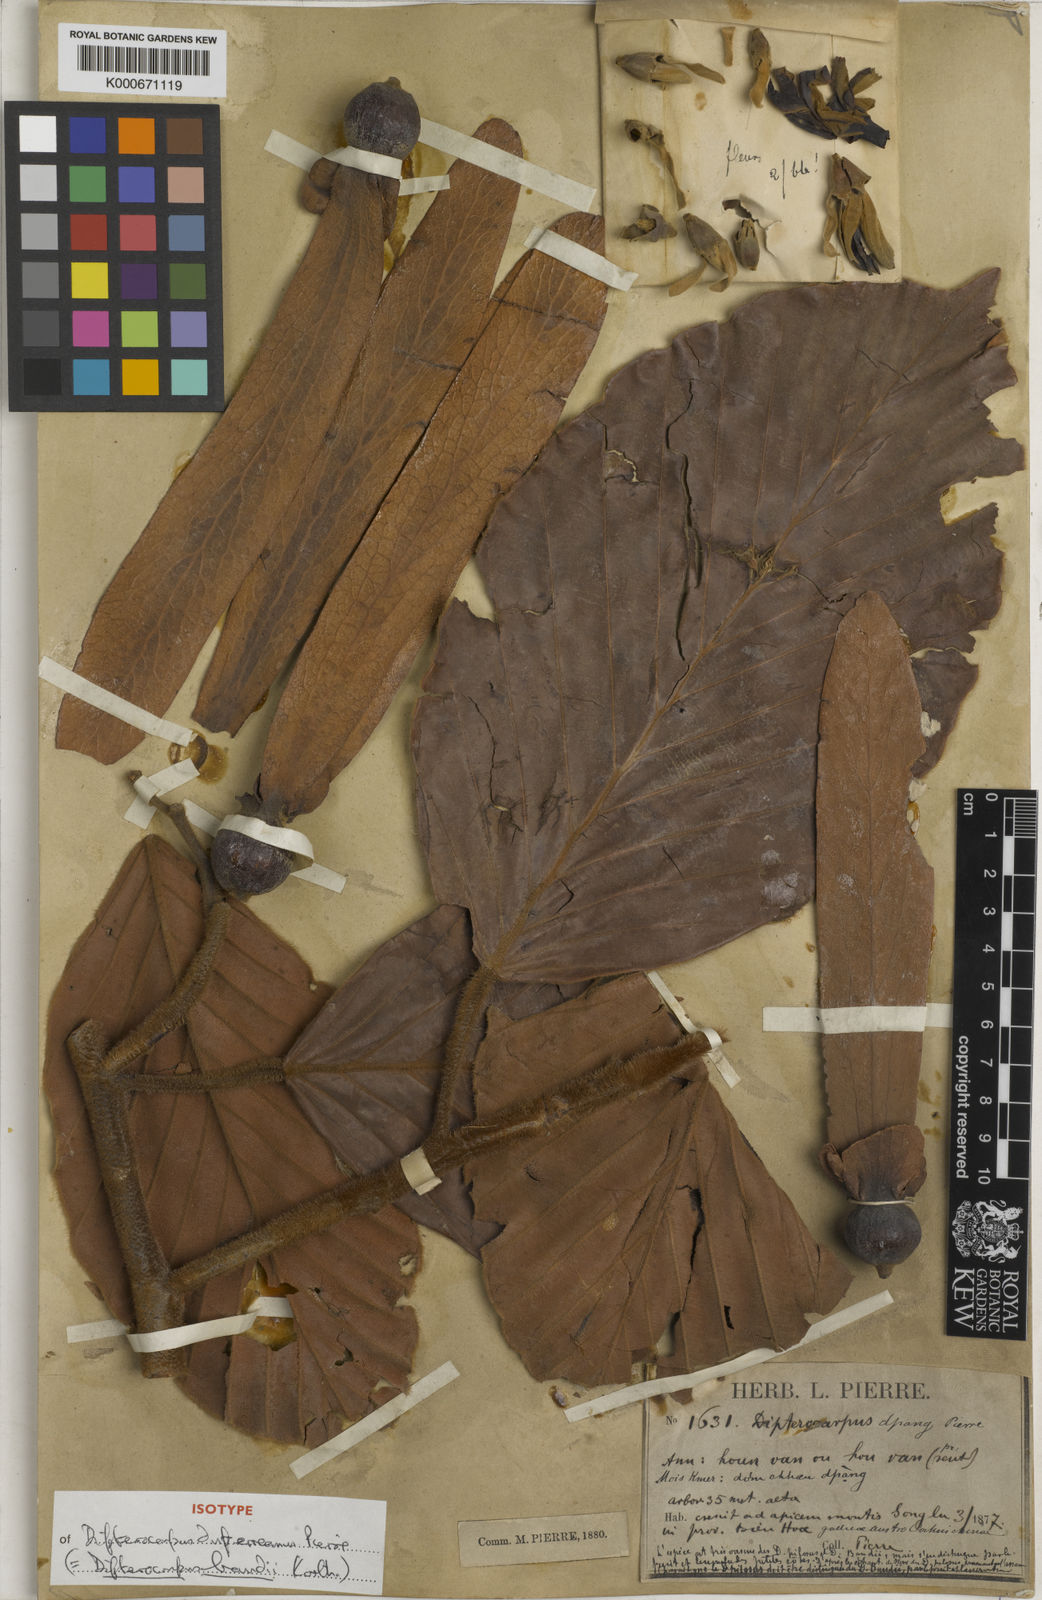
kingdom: Plantae
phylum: Tracheophyta
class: Magnoliopsida
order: Malvales
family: Dipterocarpaceae
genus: Dipterocarpus
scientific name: Dipterocarpus baudii
